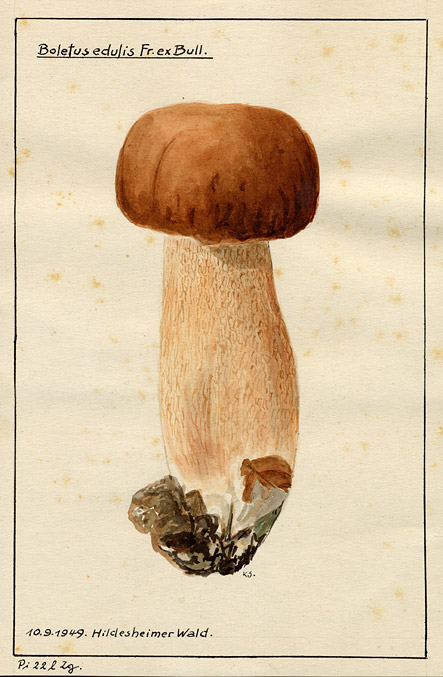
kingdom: Fungi
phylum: Basidiomycota
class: Agaricomycetes
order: Boletales
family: Boletaceae
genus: Boletus
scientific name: Boletus edulis
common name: Cep
